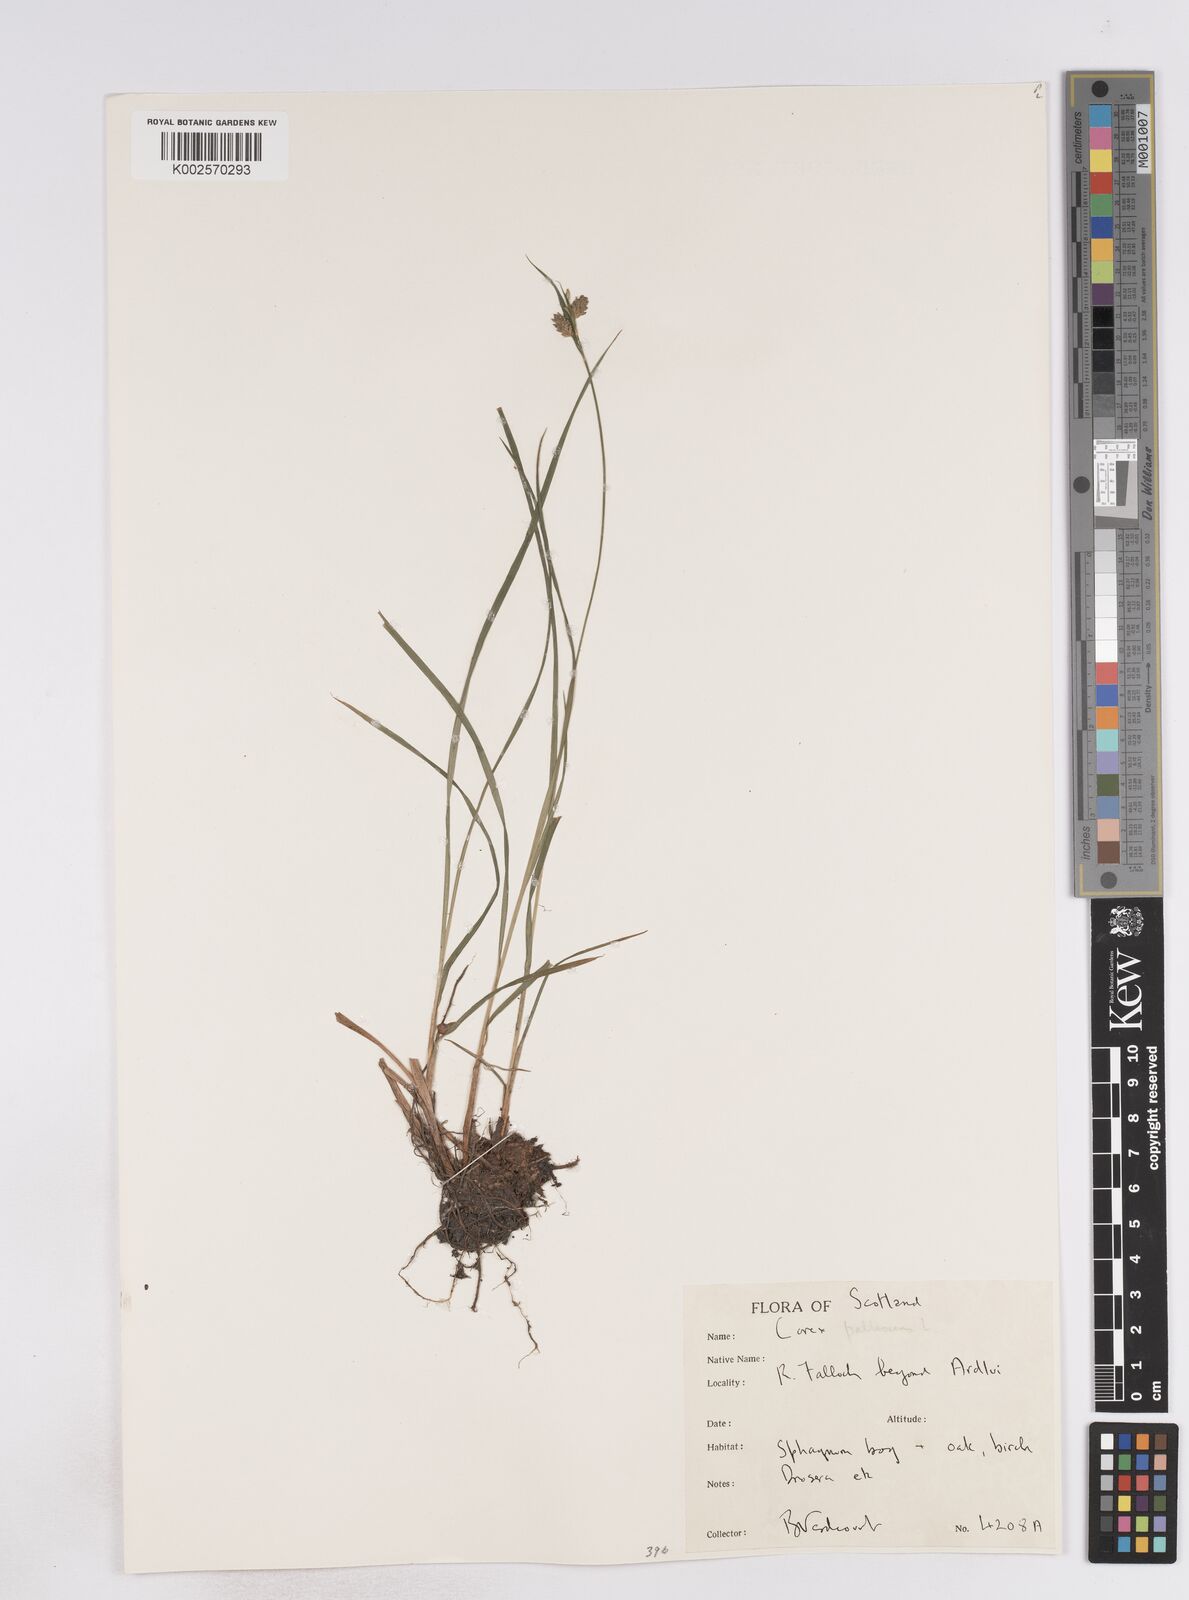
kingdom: Plantae
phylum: Tracheophyta
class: Liliopsida
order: Poales
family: Cyperaceae
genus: Carex
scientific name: Carex pallescens
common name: Pale sedge
